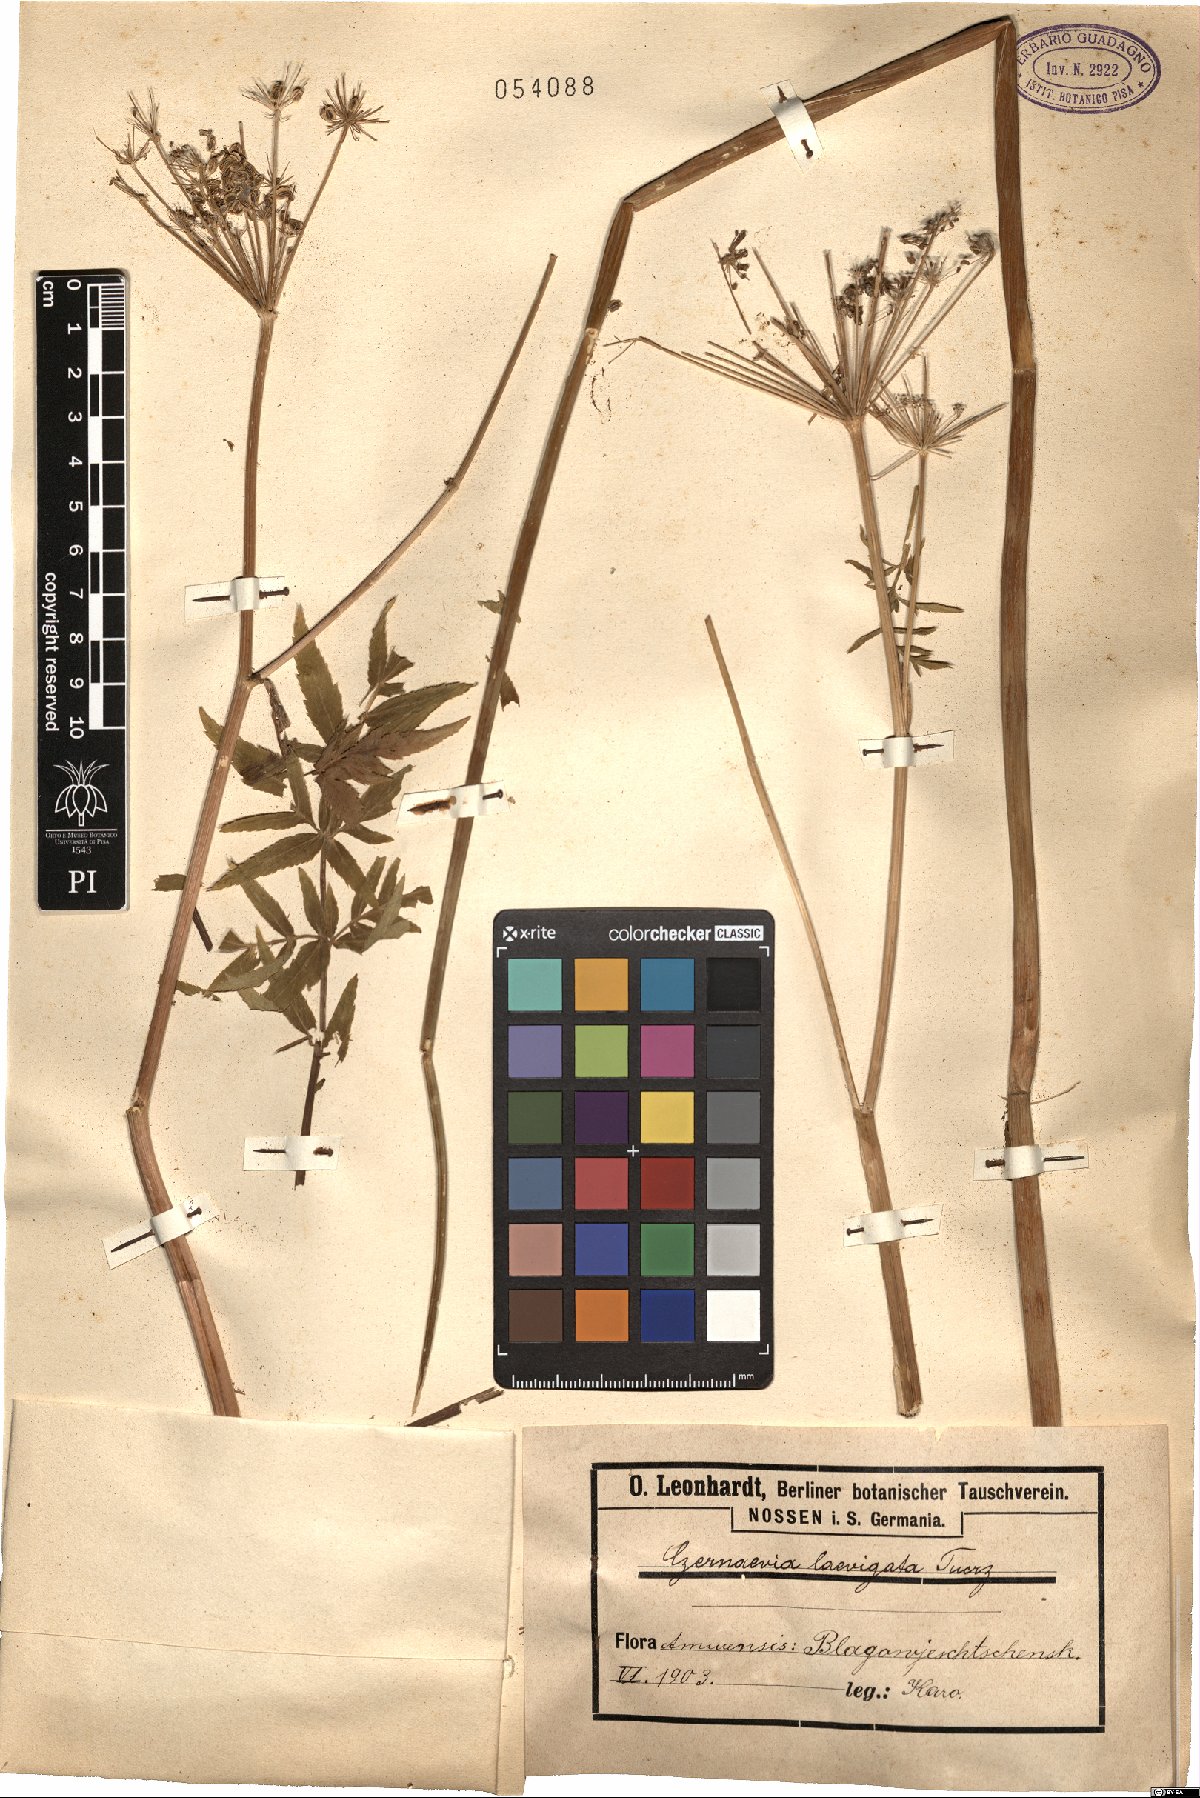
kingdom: Plantae
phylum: Tracheophyta
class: Magnoliopsida
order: Apiales
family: Apiaceae
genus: Angelica
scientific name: Angelica czernaevia
